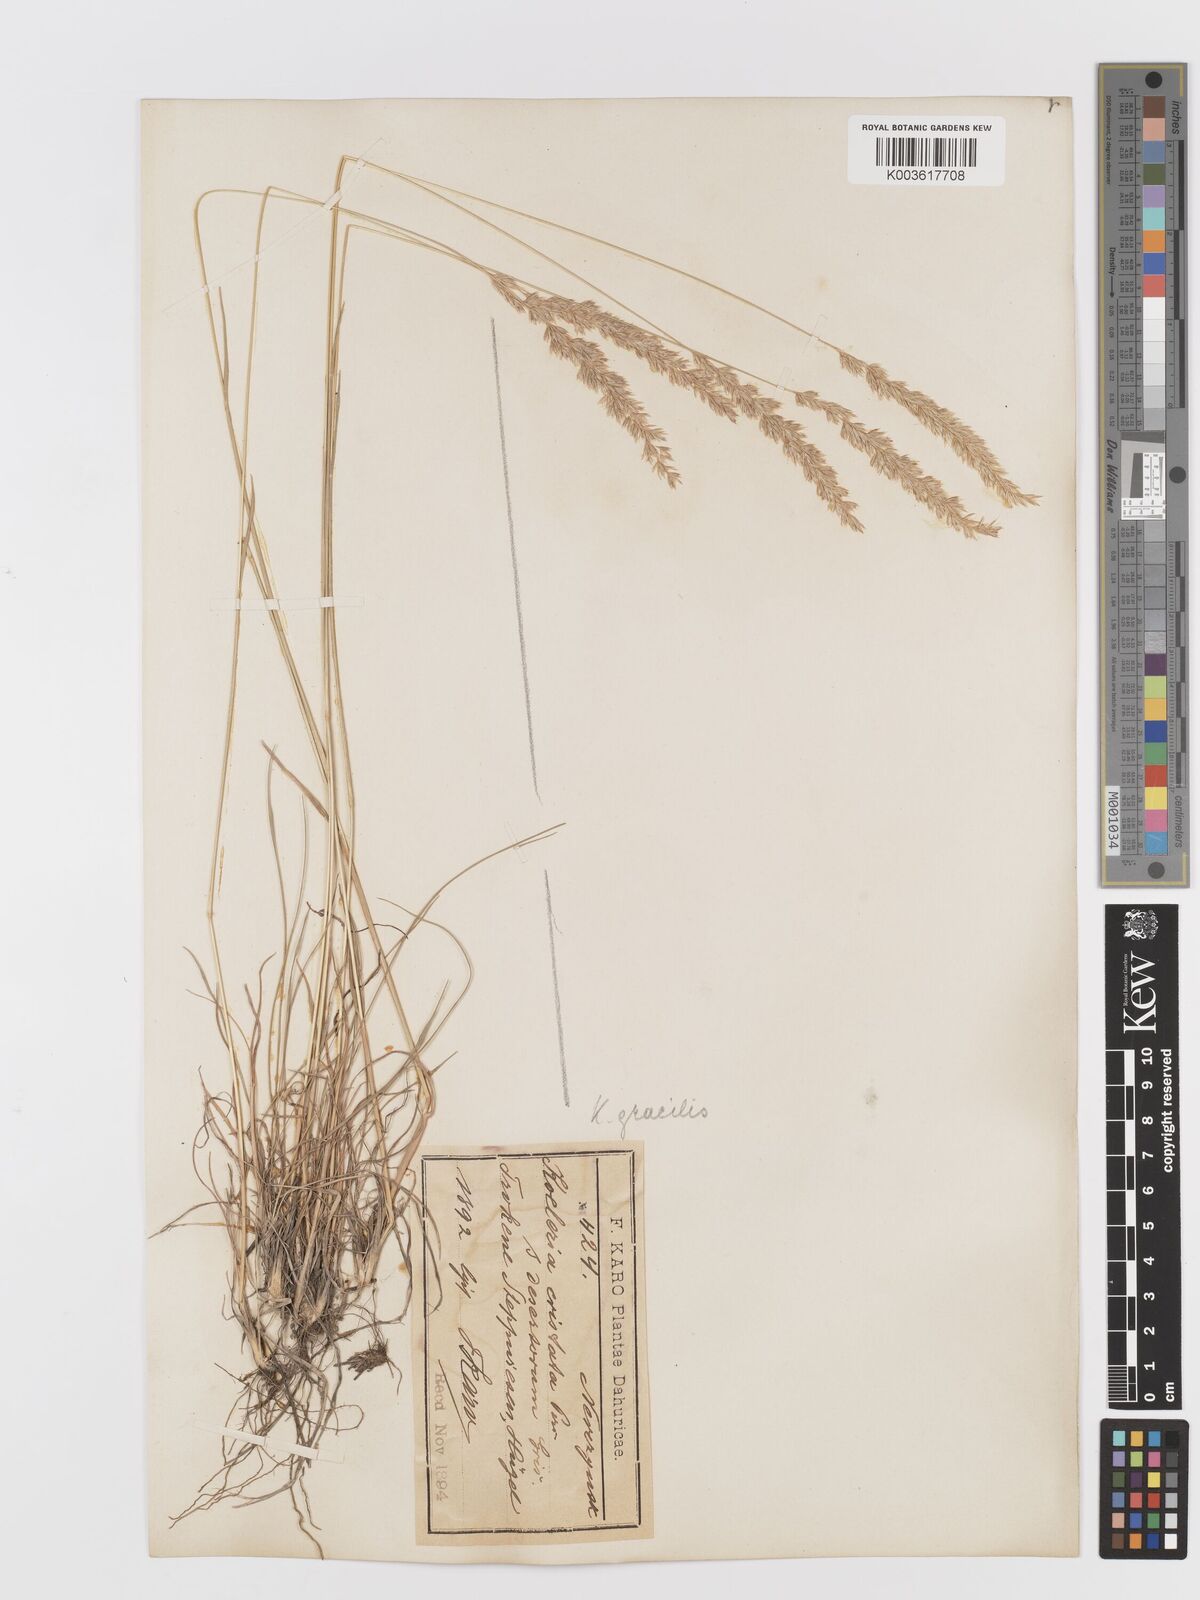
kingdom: Plantae
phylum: Tracheophyta
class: Liliopsida
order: Poales
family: Poaceae
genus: Koeleria
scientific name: Koeleria pyramidata
